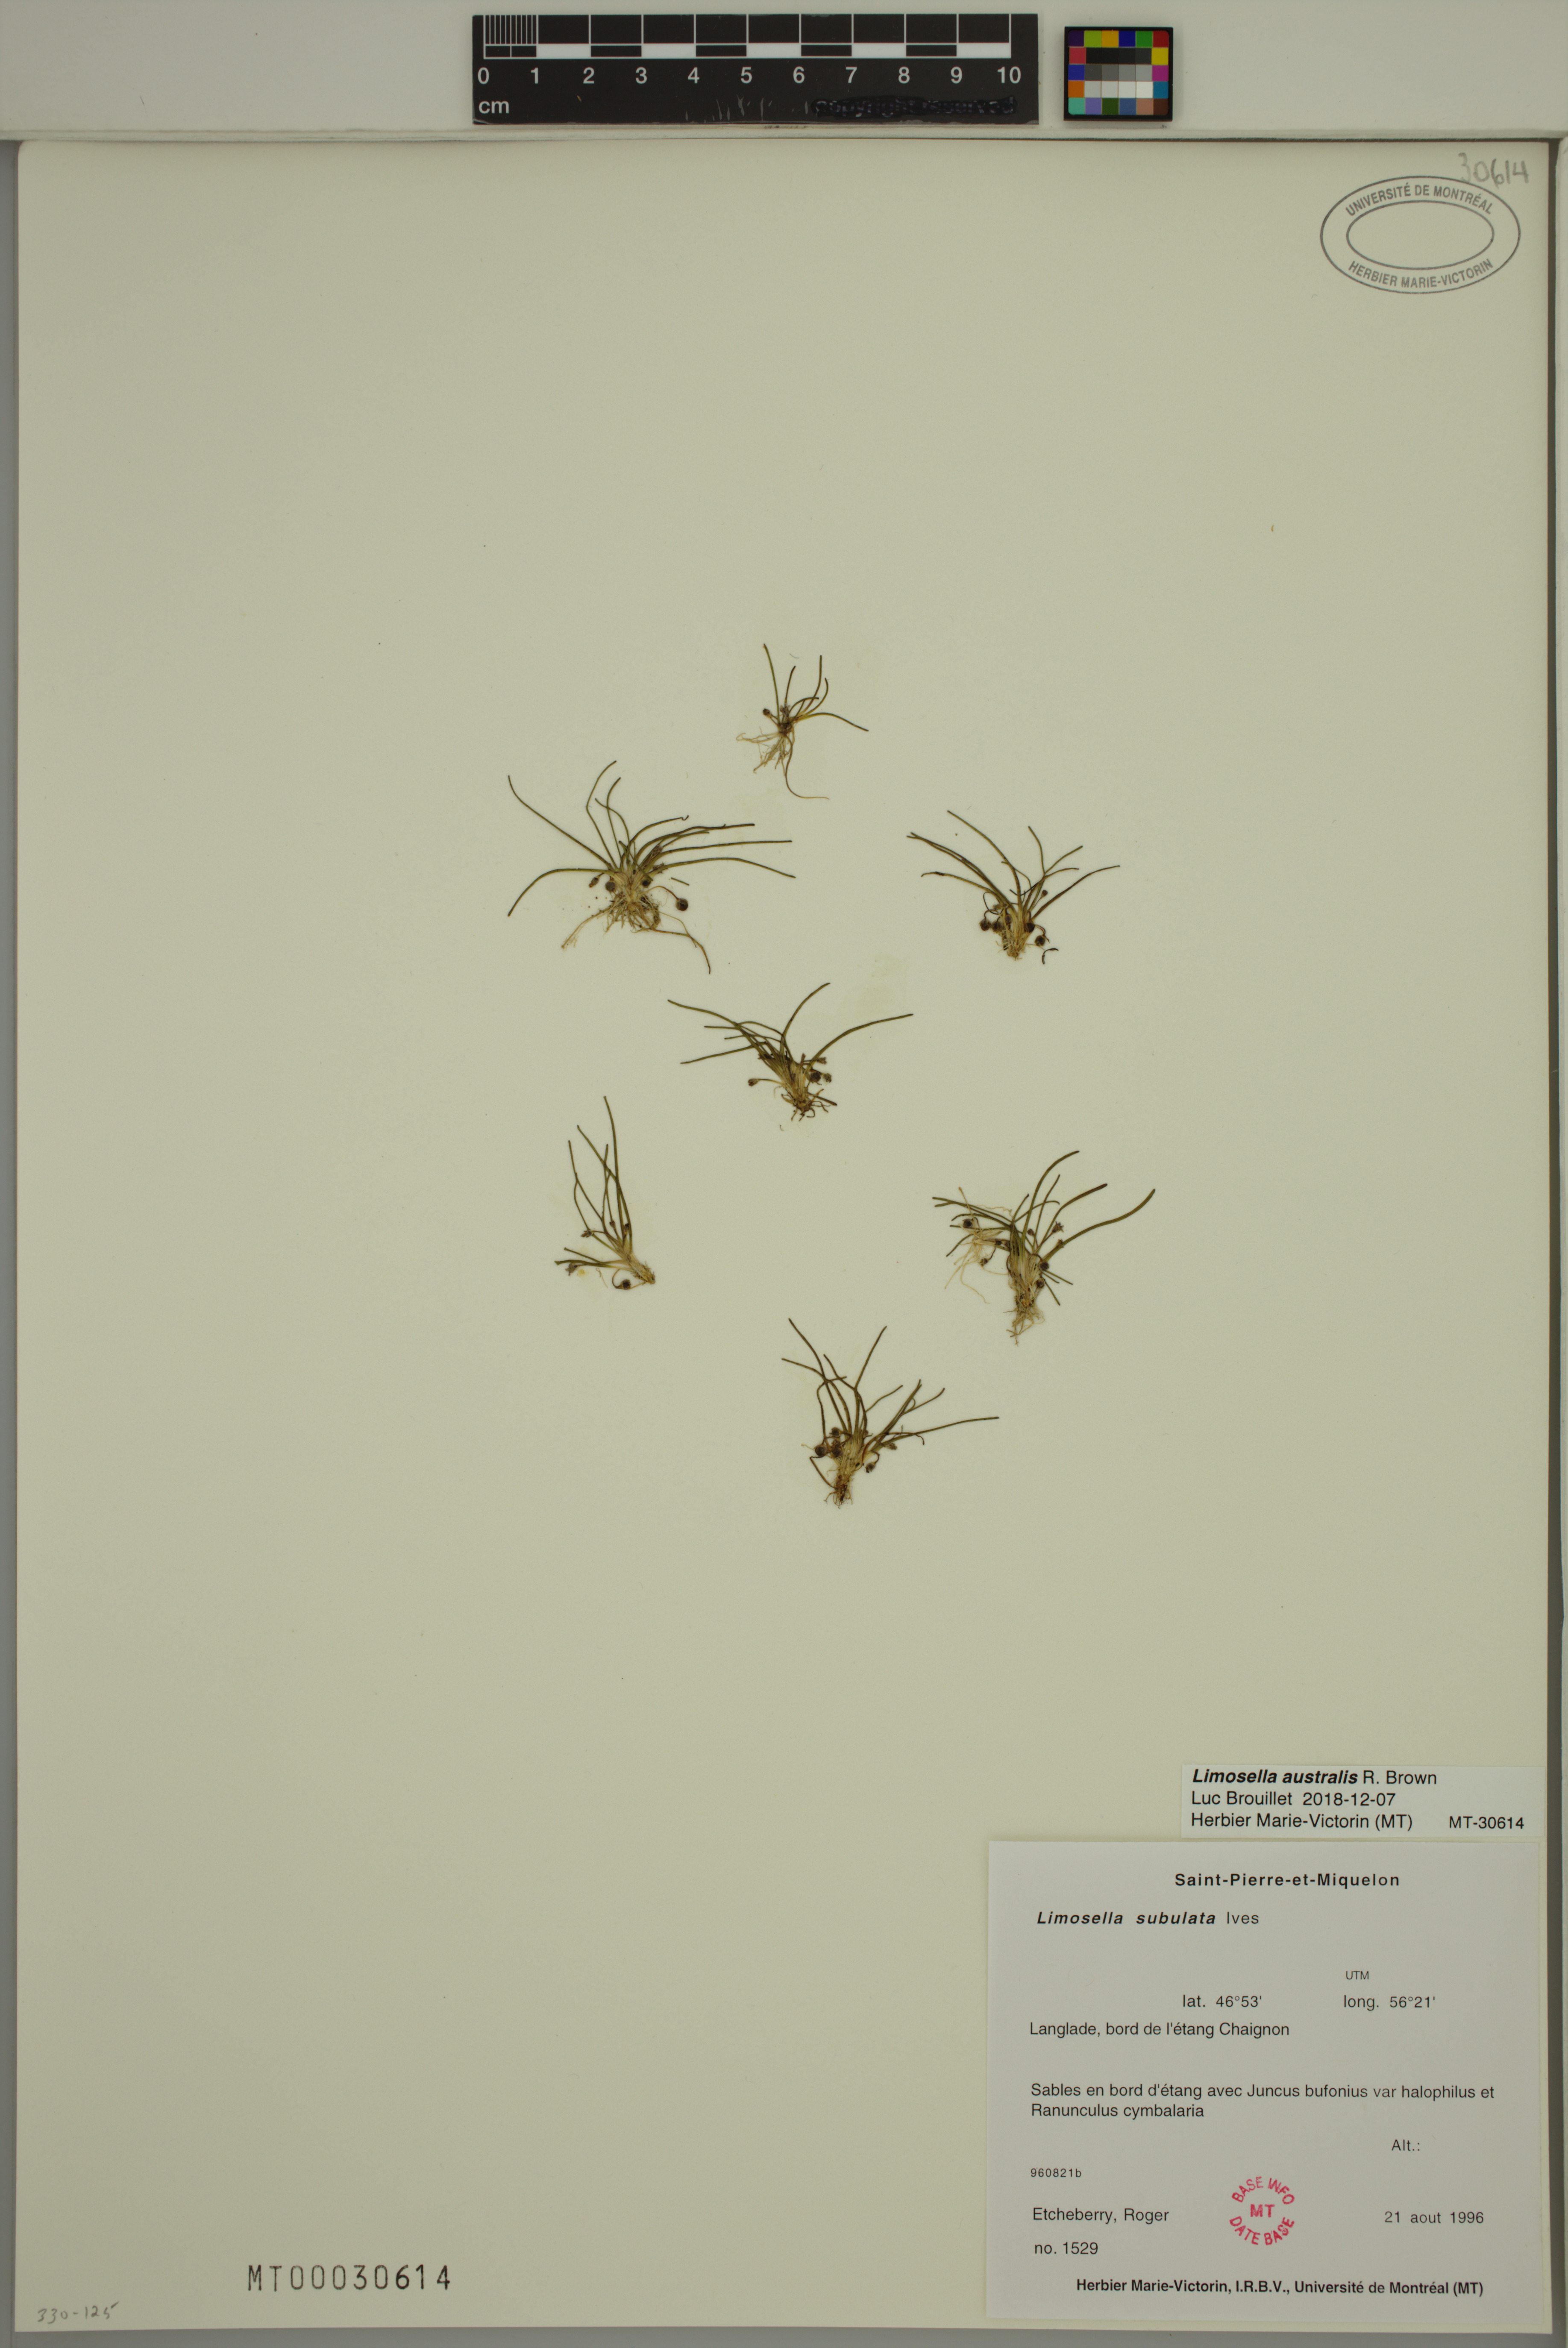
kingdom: Plantae
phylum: Tracheophyta
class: Magnoliopsida
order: Lamiales
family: Scrophulariaceae
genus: Limosella
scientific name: Limosella australis
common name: Welsh mudwort
